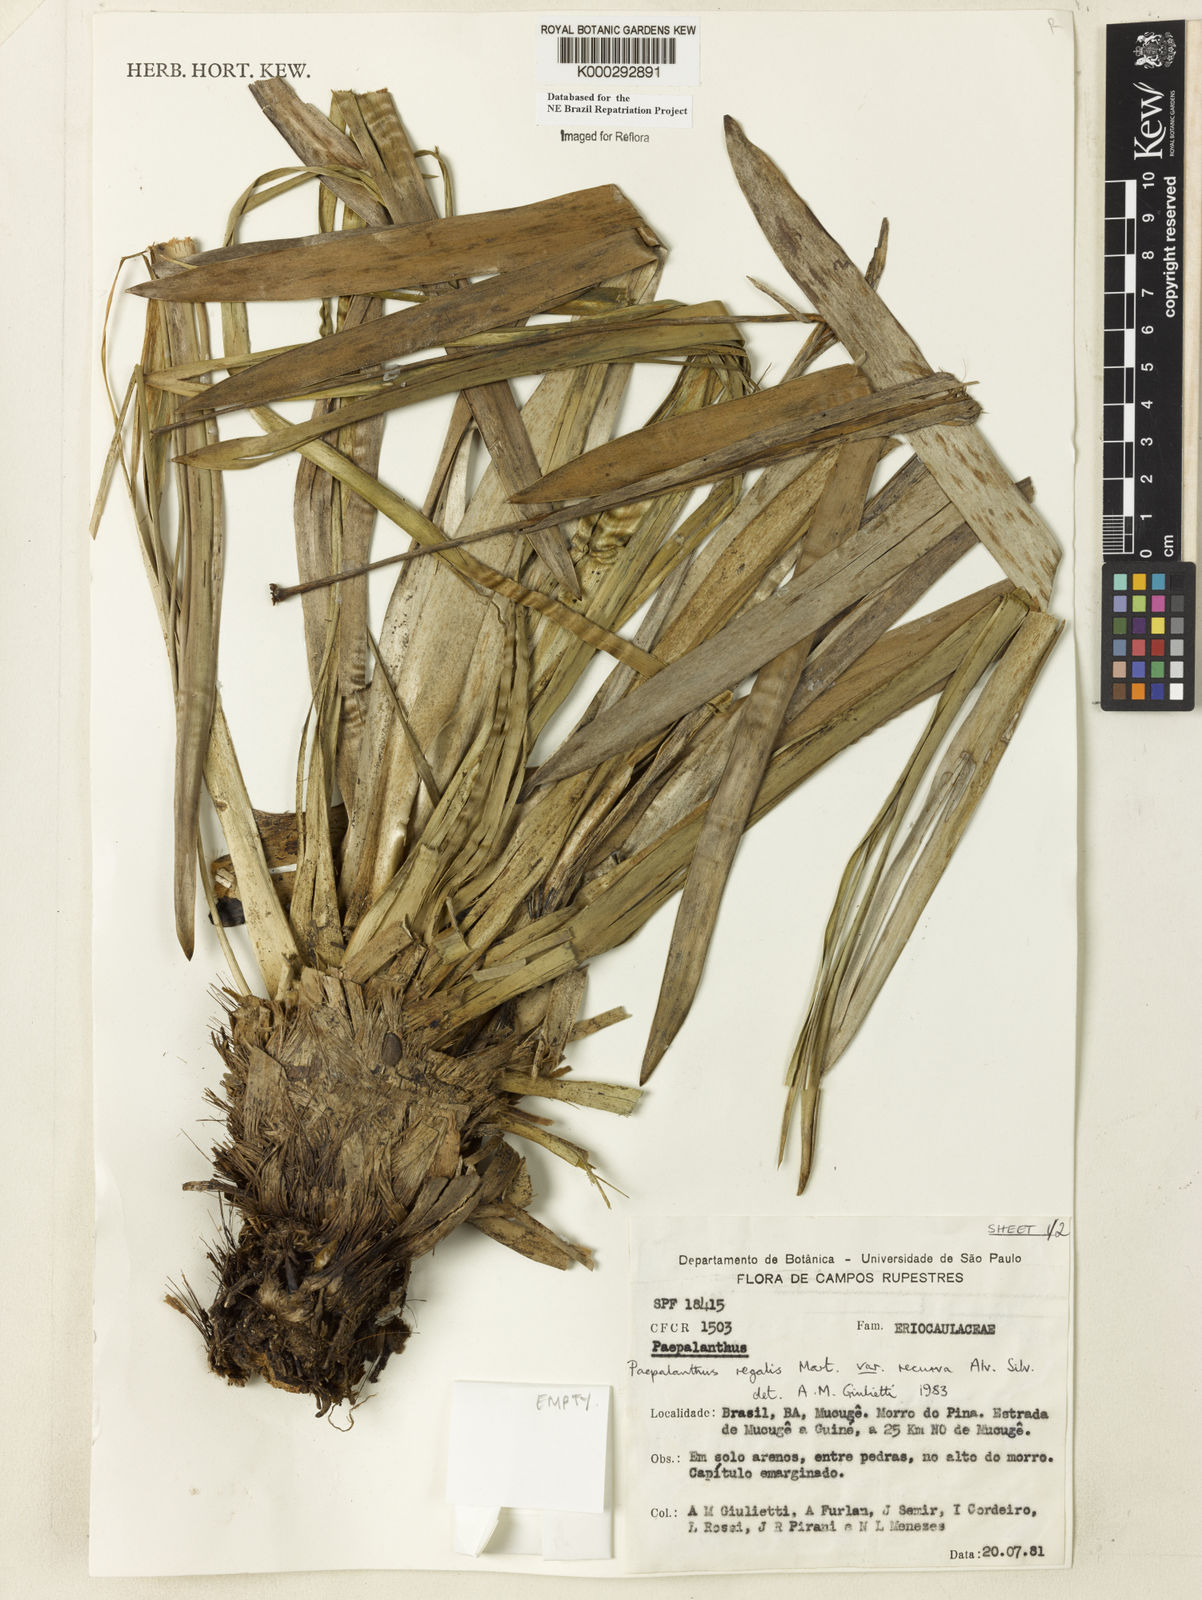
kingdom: Plantae
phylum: Tracheophyta
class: Liliopsida
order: Poales
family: Eriocaulaceae
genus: Paepalanthus
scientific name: Paepalanthus
